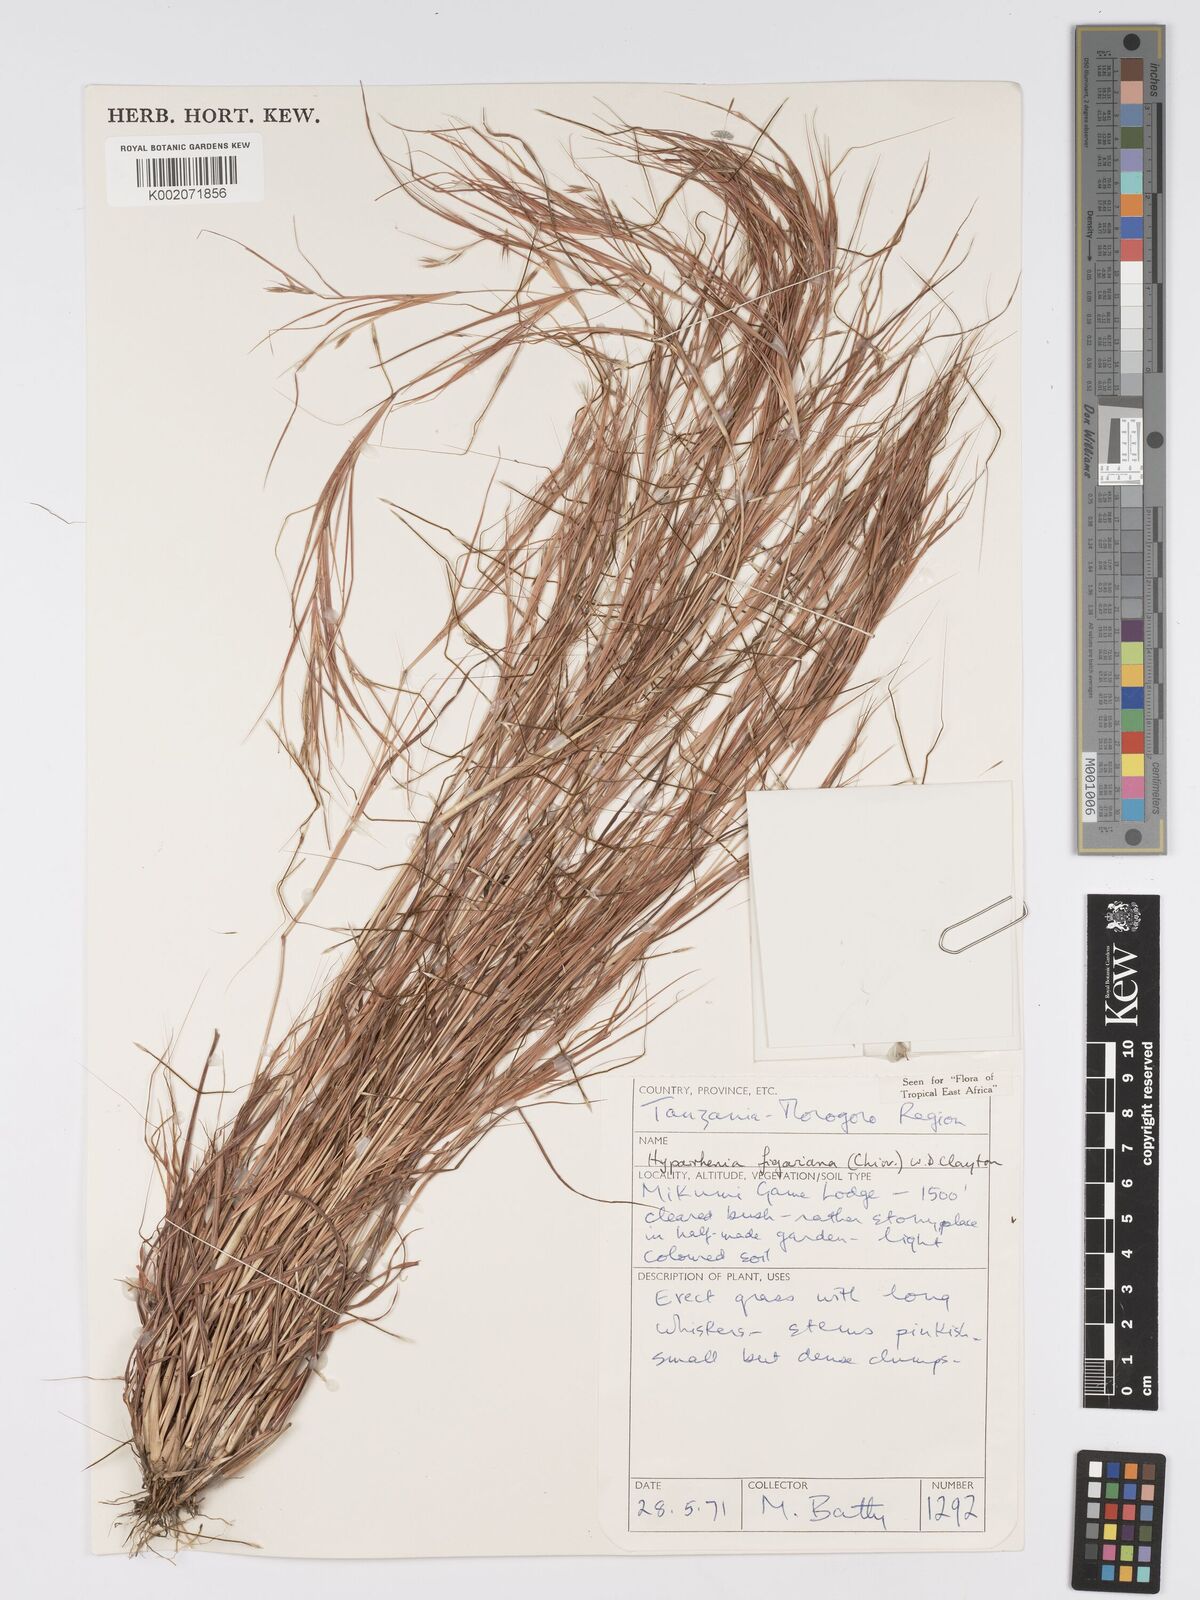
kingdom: Plantae
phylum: Tracheophyta
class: Liliopsida
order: Poales
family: Poaceae
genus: Hyparrhenia
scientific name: Hyparrhenia figariana
